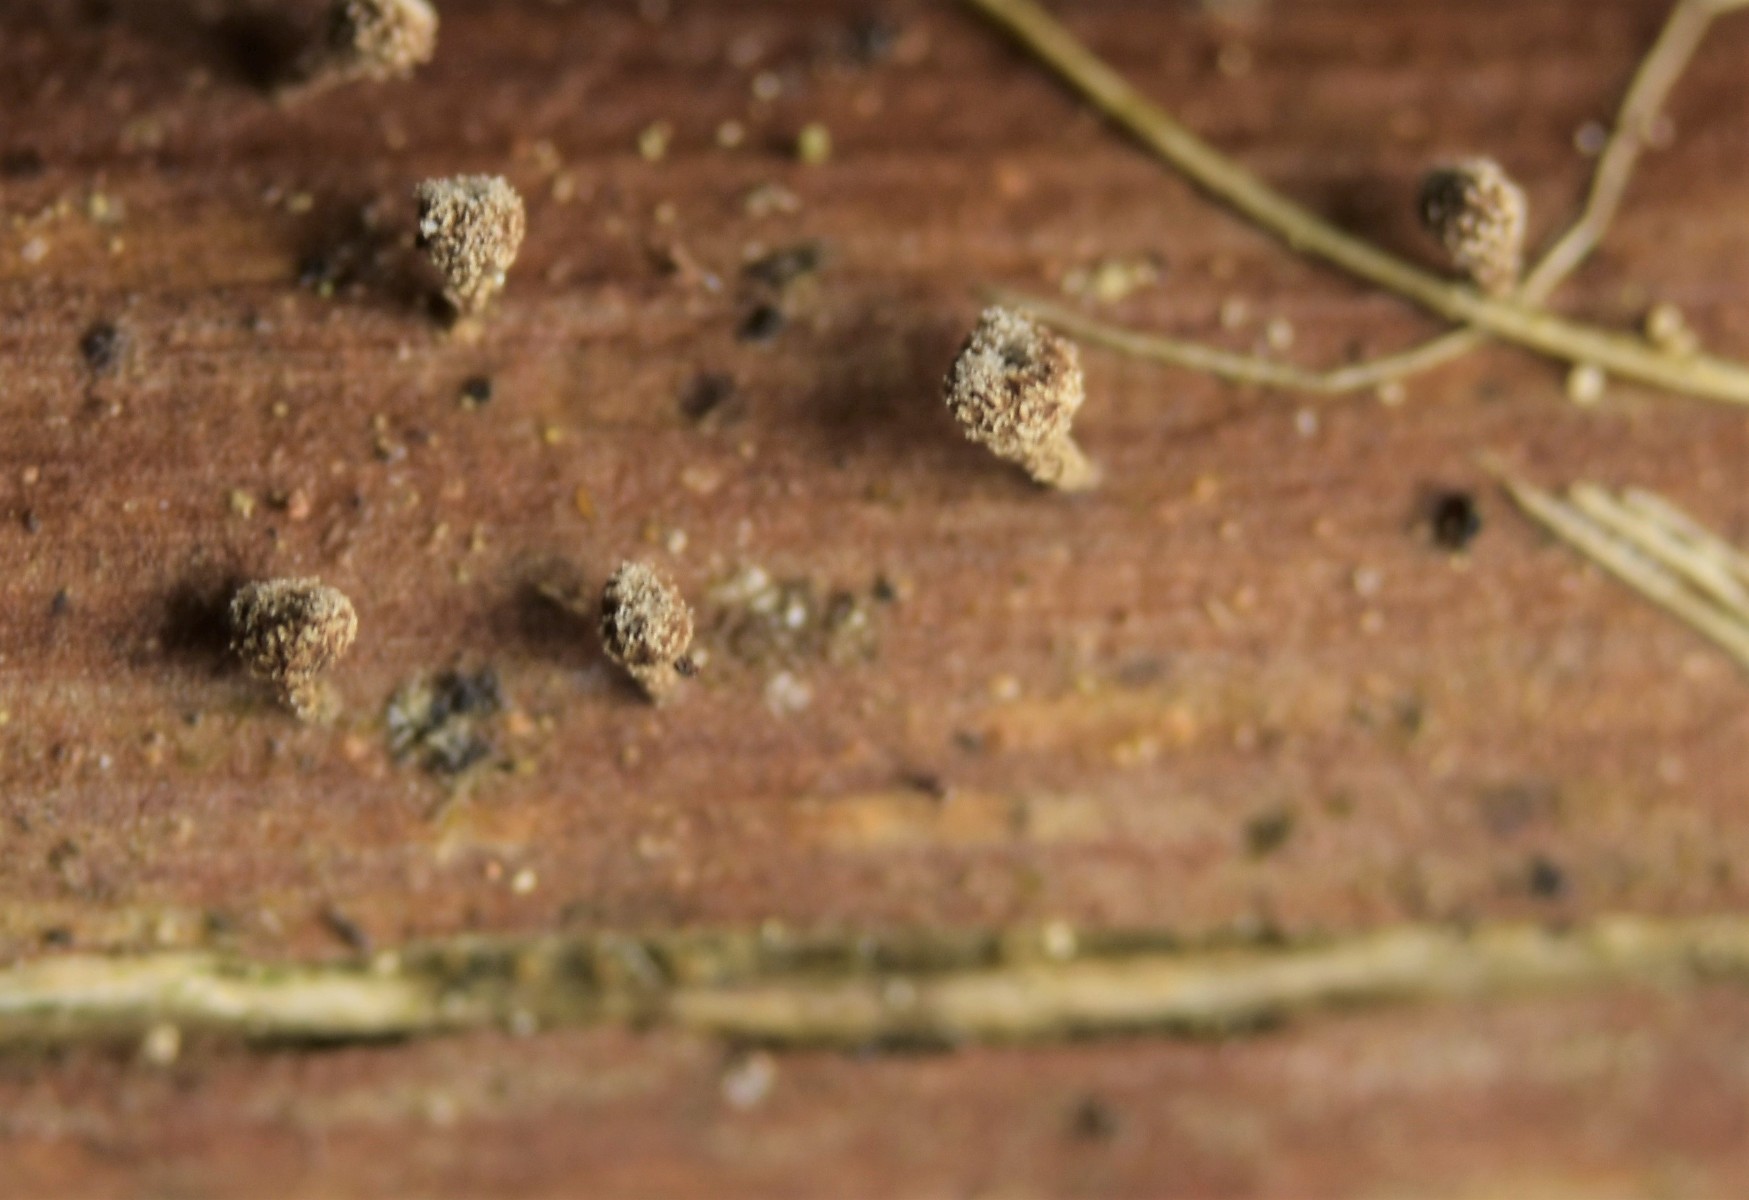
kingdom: Fungi
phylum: Ascomycota
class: Leotiomycetes
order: Helotiales
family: Lachnaceae
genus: Brunnipila
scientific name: Brunnipila clandestina
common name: hindbær-frynseskive
